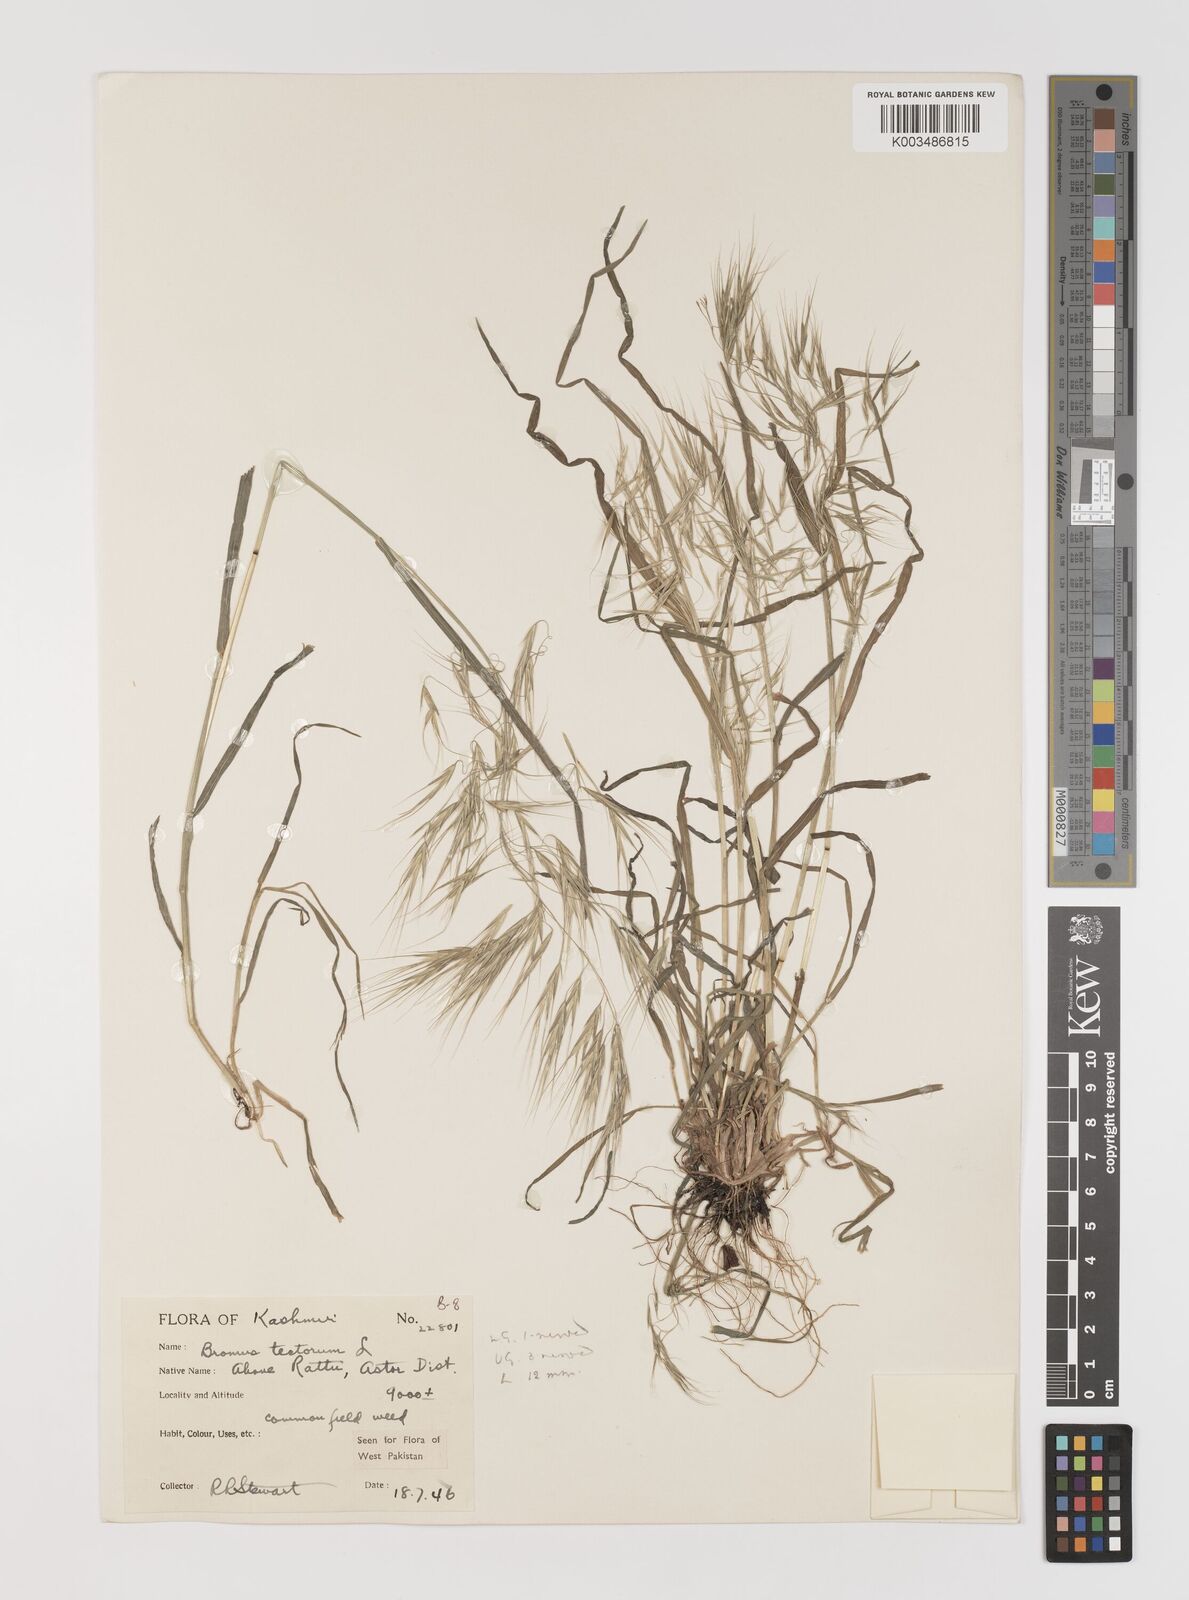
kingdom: Plantae
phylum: Tracheophyta
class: Liliopsida
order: Poales
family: Poaceae
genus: Bromus
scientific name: Bromus tectorum
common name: Cheatgrass
